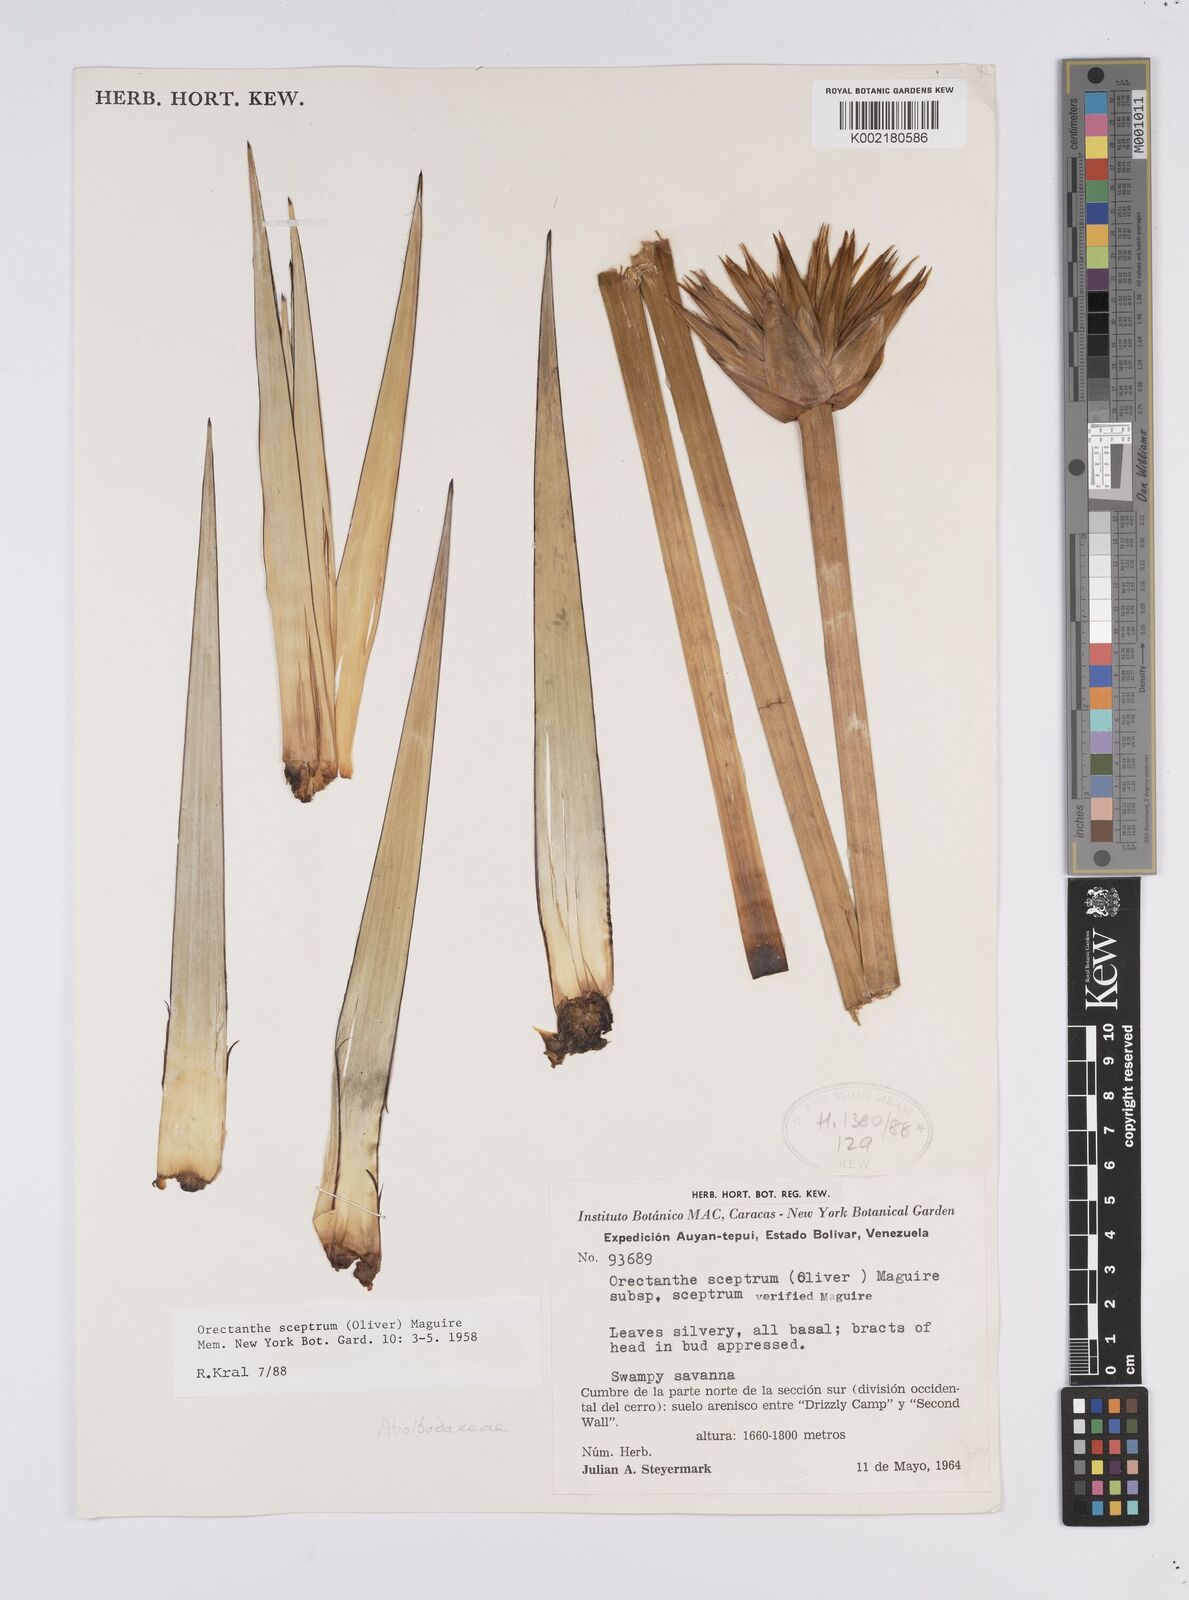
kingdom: Plantae
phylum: Tracheophyta
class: Liliopsida
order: Poales
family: Xyridaceae
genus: Orectanthe
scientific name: Orectanthe sceptrum
